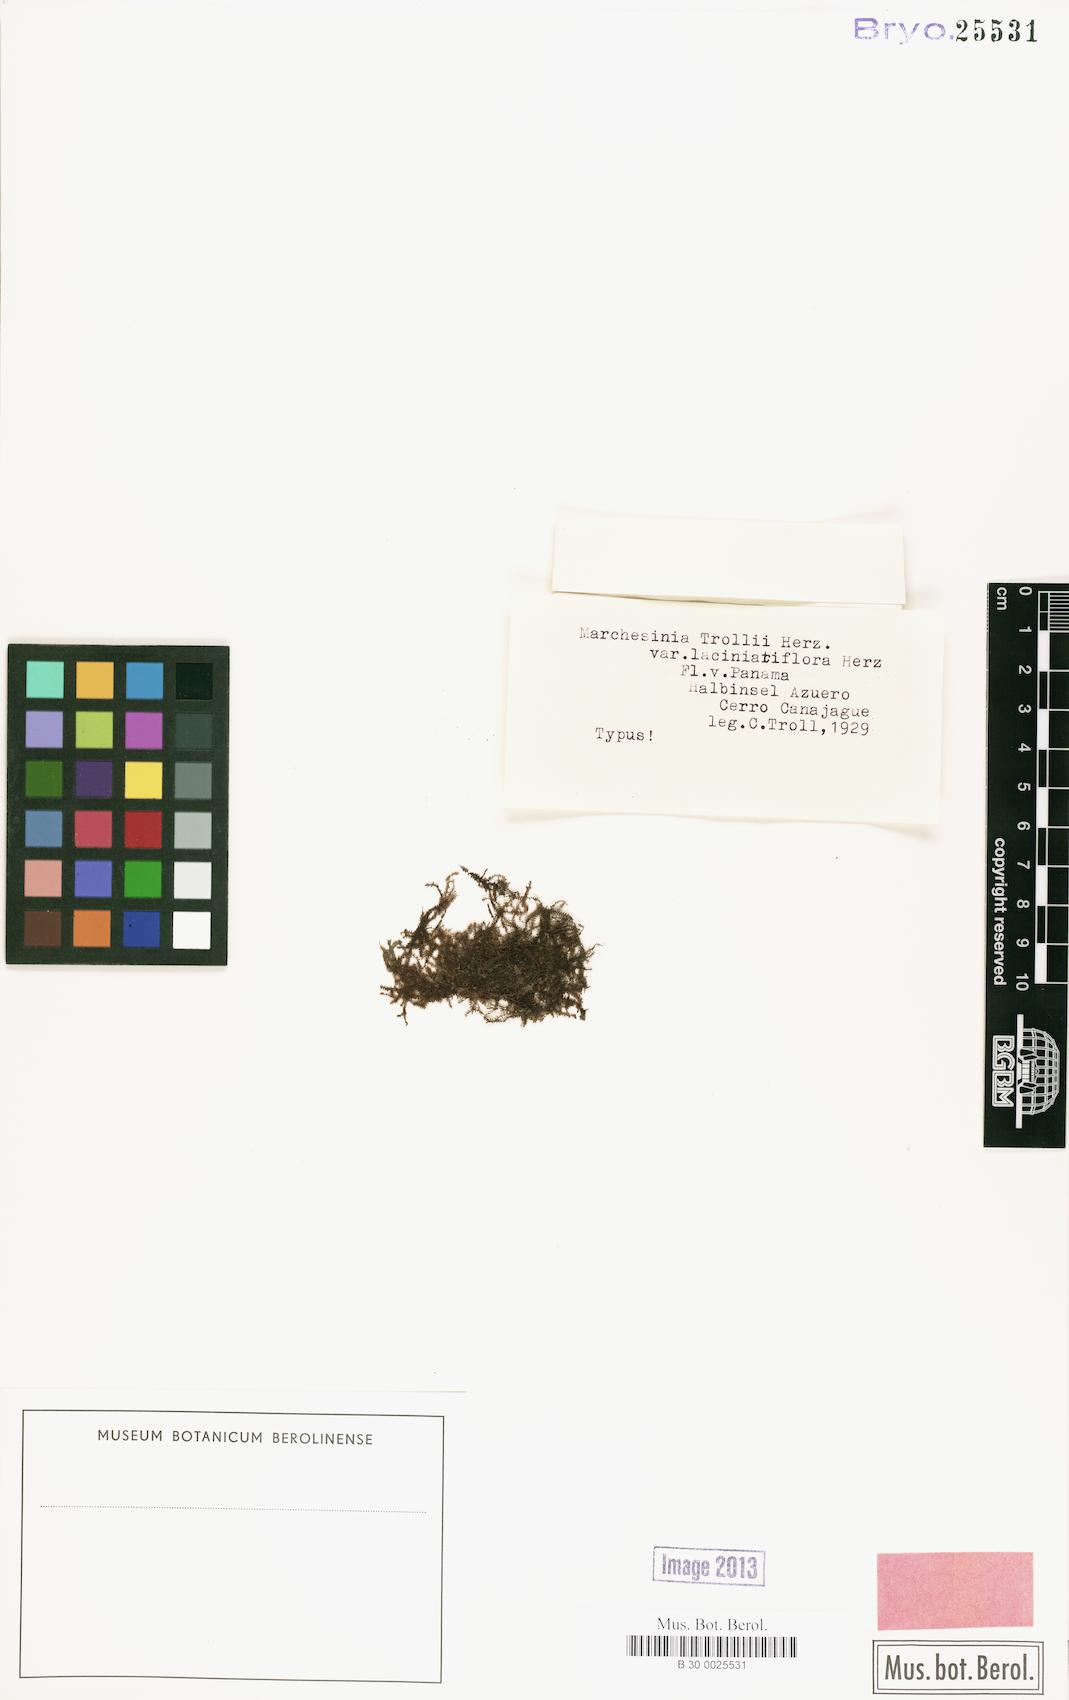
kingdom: Plantae
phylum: Marchantiophyta
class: Jungermanniopsida
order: Porellales
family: Lejeuneaceae
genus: Marchesinia
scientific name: Marchesinia brachiata
